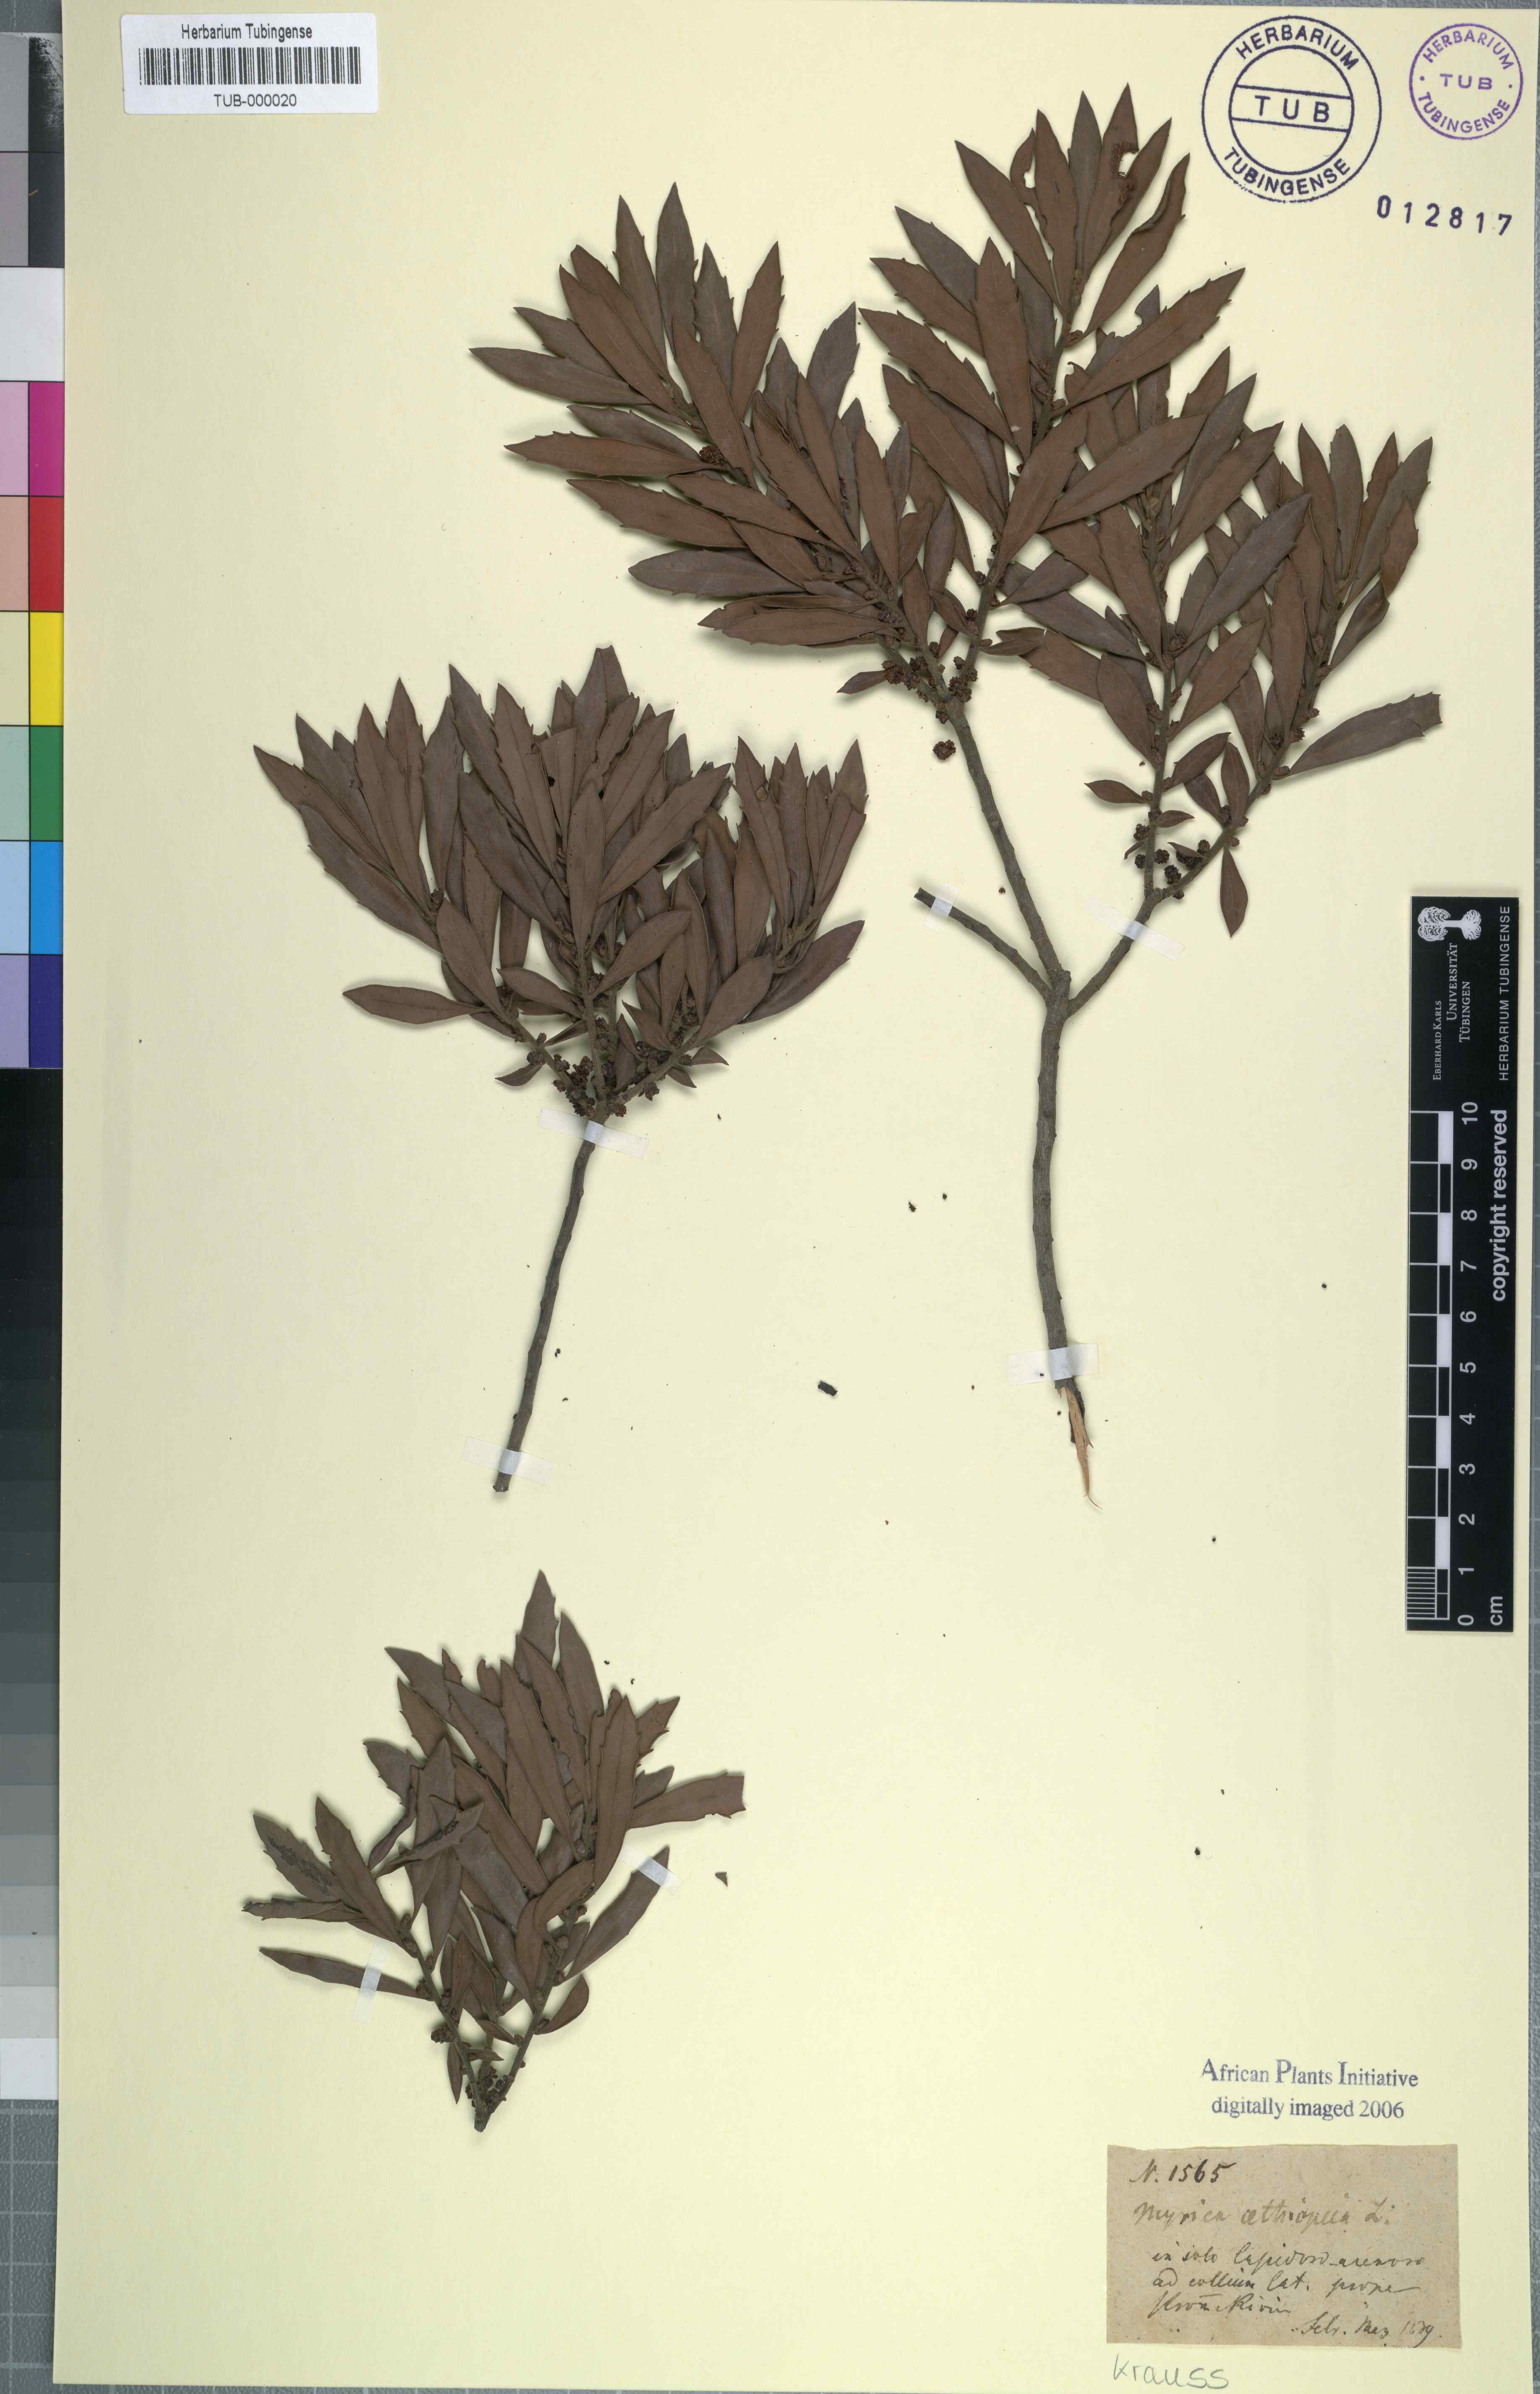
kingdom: Plantae
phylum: Tracheophyta
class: Magnoliopsida
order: Fagales
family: Myricaceae
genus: Morella
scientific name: Morella serrata
